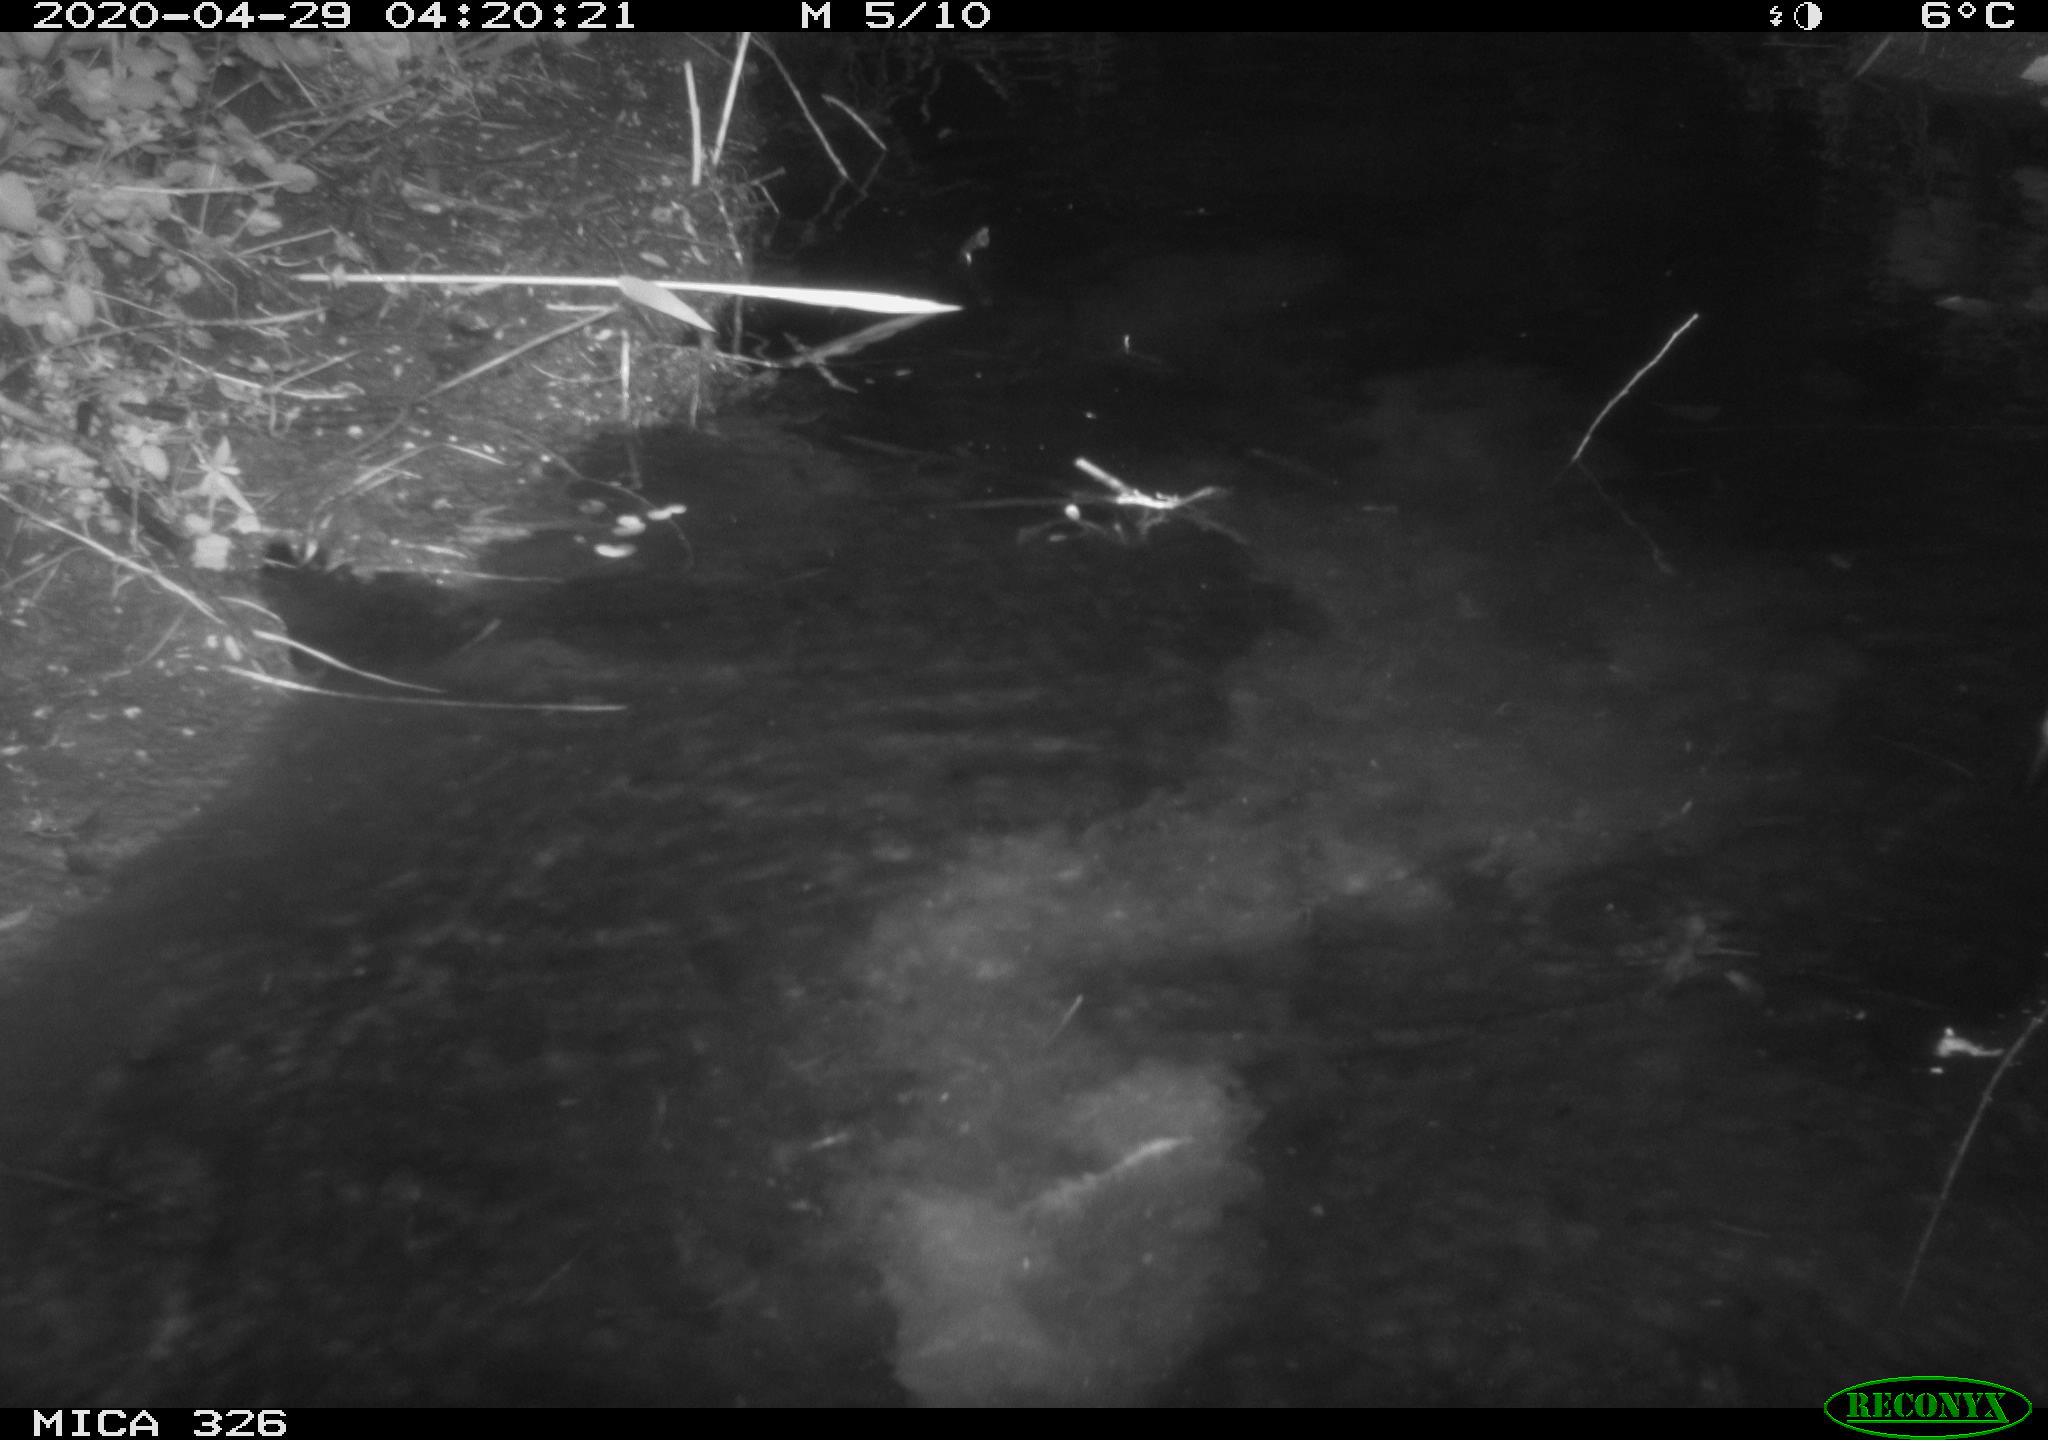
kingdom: Animalia
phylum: Chordata
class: Mammalia
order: Rodentia
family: Myocastoridae
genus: Myocastor
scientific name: Myocastor coypus
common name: Coypu
